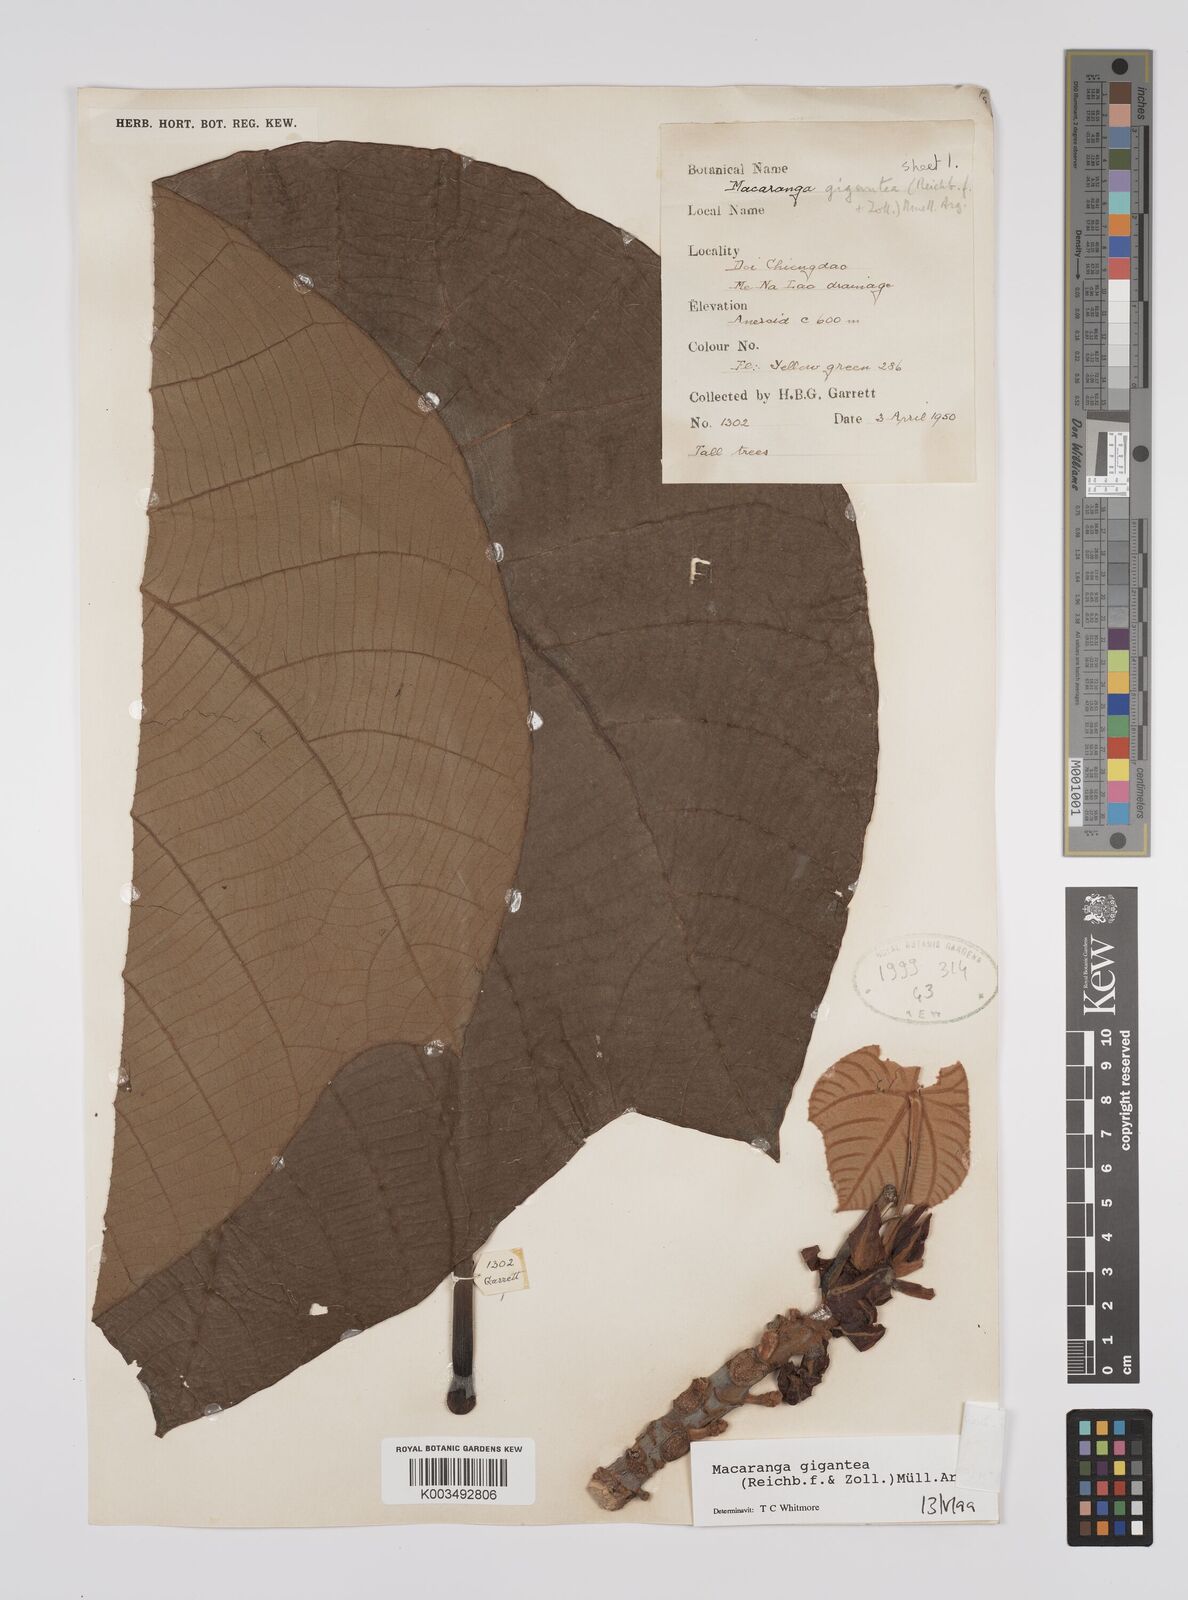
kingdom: Plantae
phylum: Tracheophyta
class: Magnoliopsida
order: Malpighiales
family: Euphorbiaceae
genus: Macaranga
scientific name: Macaranga siamensis
